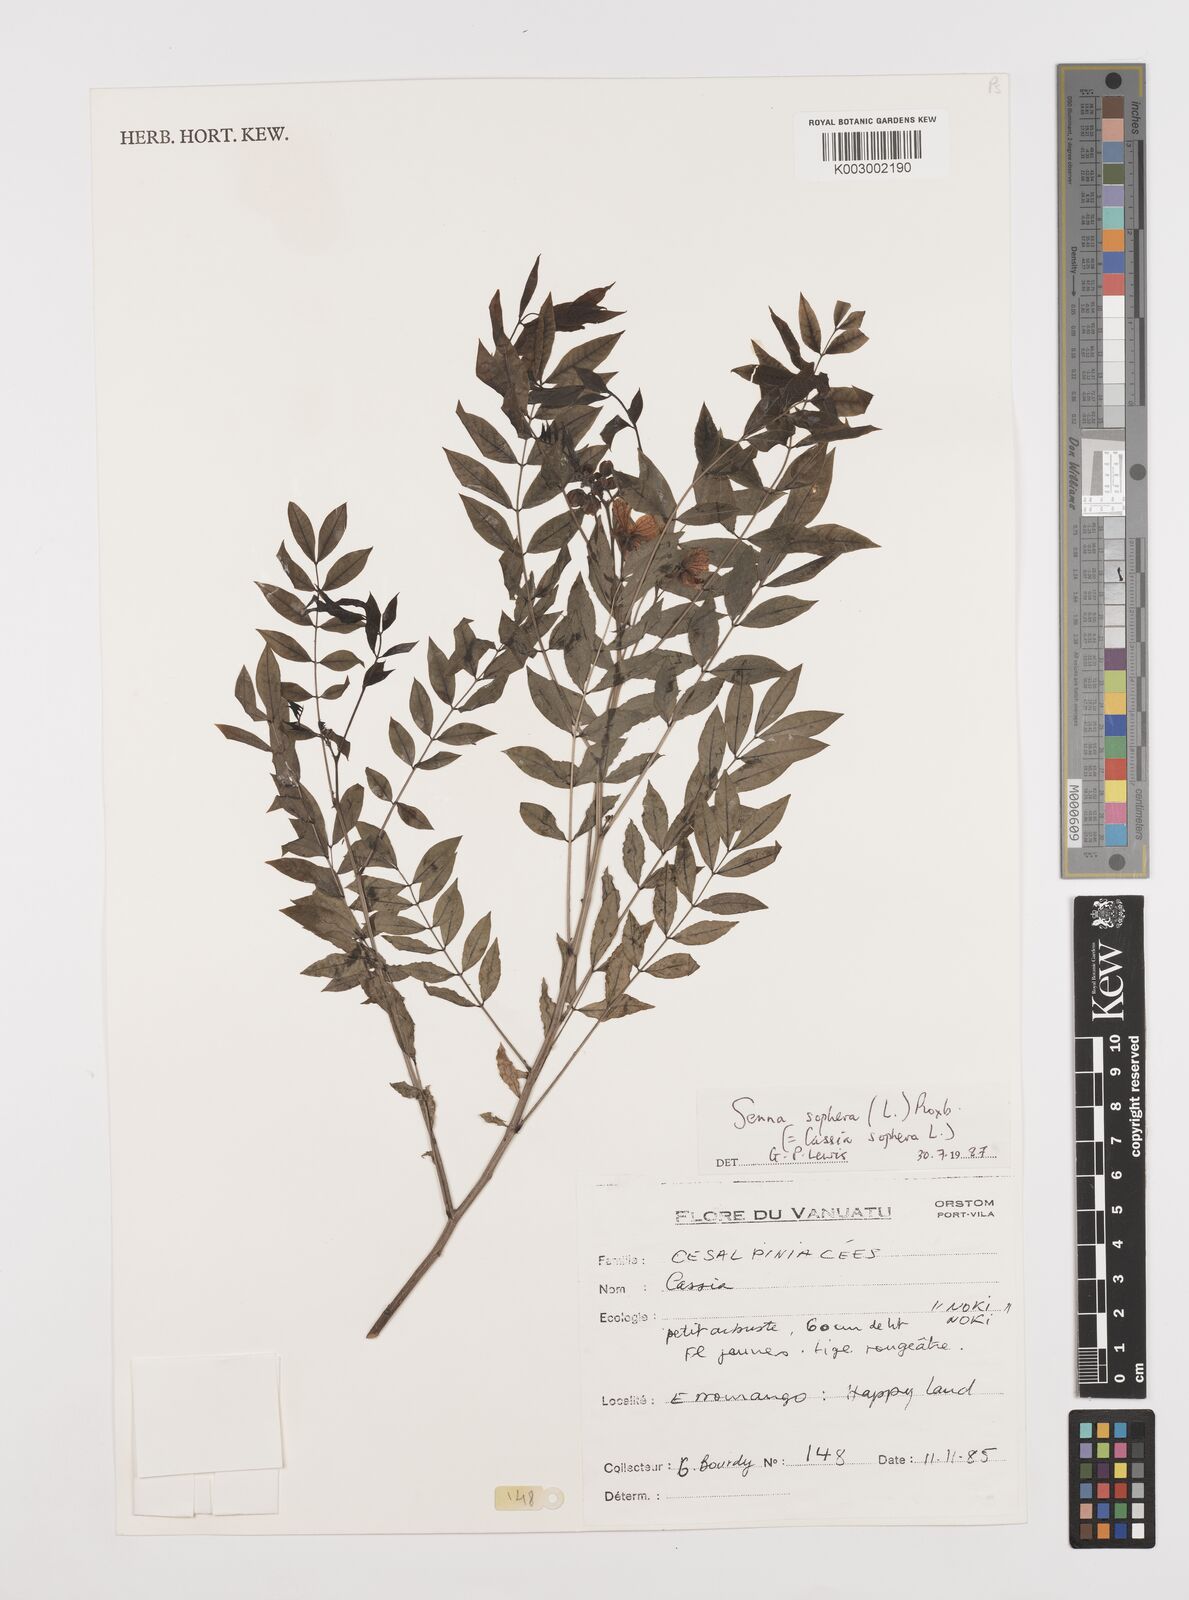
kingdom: Plantae
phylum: Tracheophyta
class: Magnoliopsida
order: Fabales
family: Fabaceae
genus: Senna
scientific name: Senna sophera
